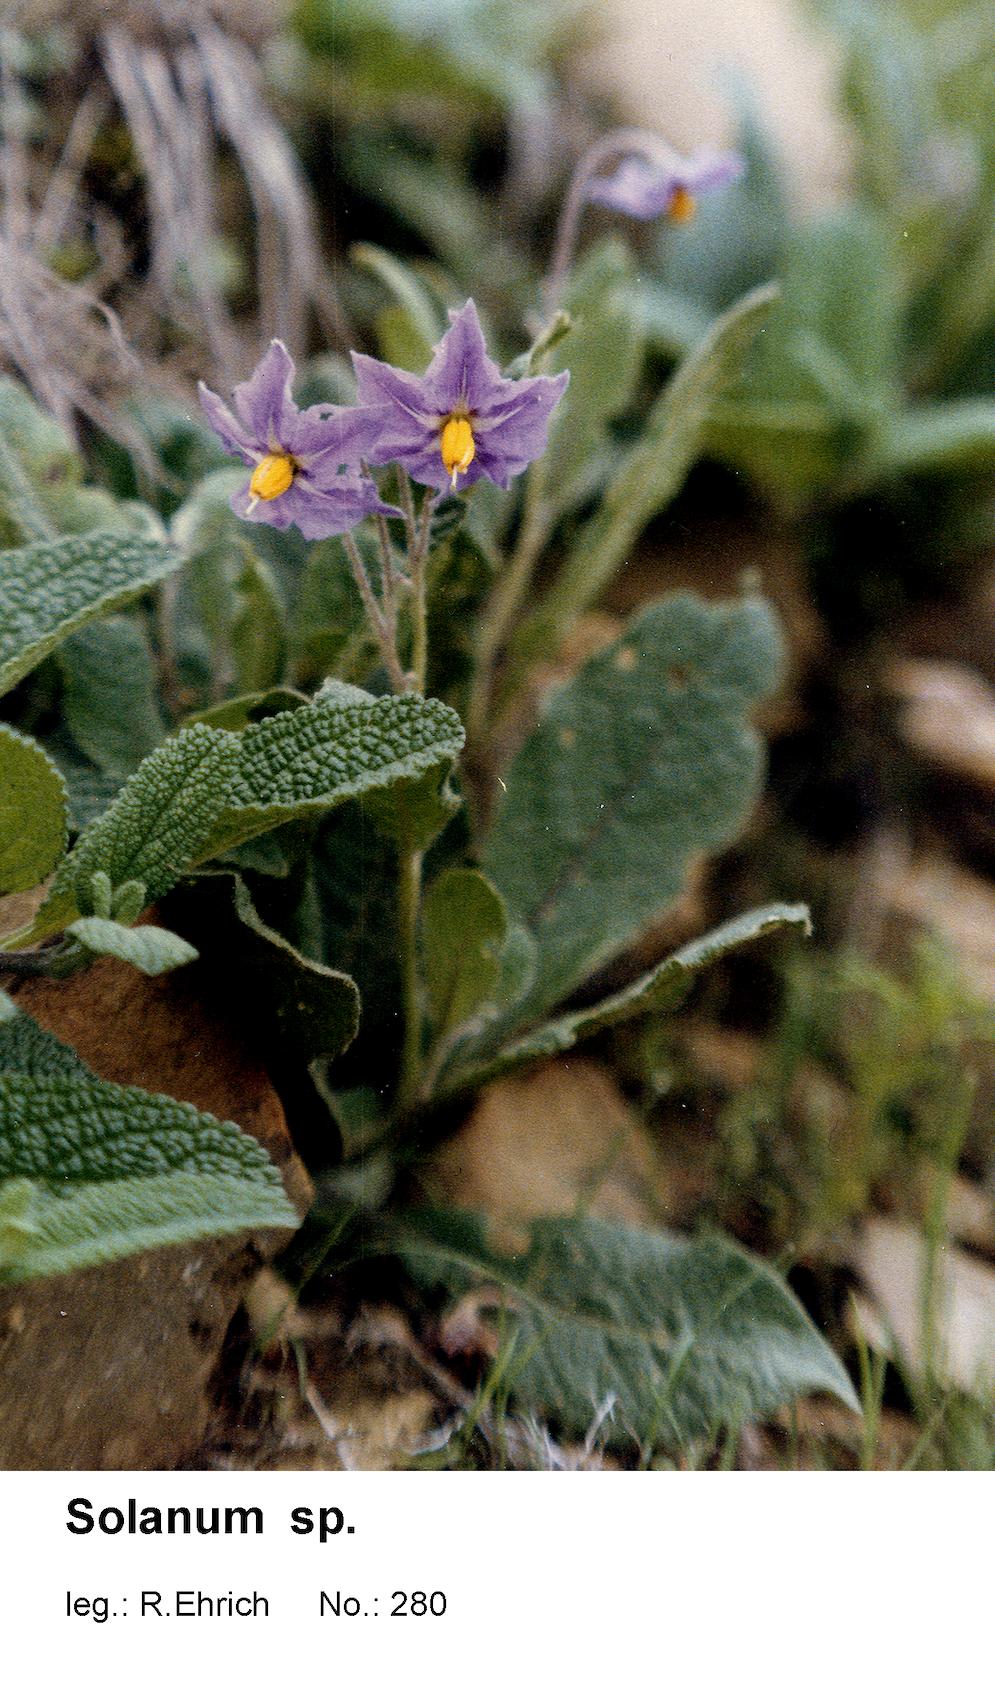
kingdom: Plantae
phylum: Tracheophyta
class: Magnoliopsida
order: Solanales
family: Solanaceae
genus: Solanum
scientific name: Solanum boliviense
